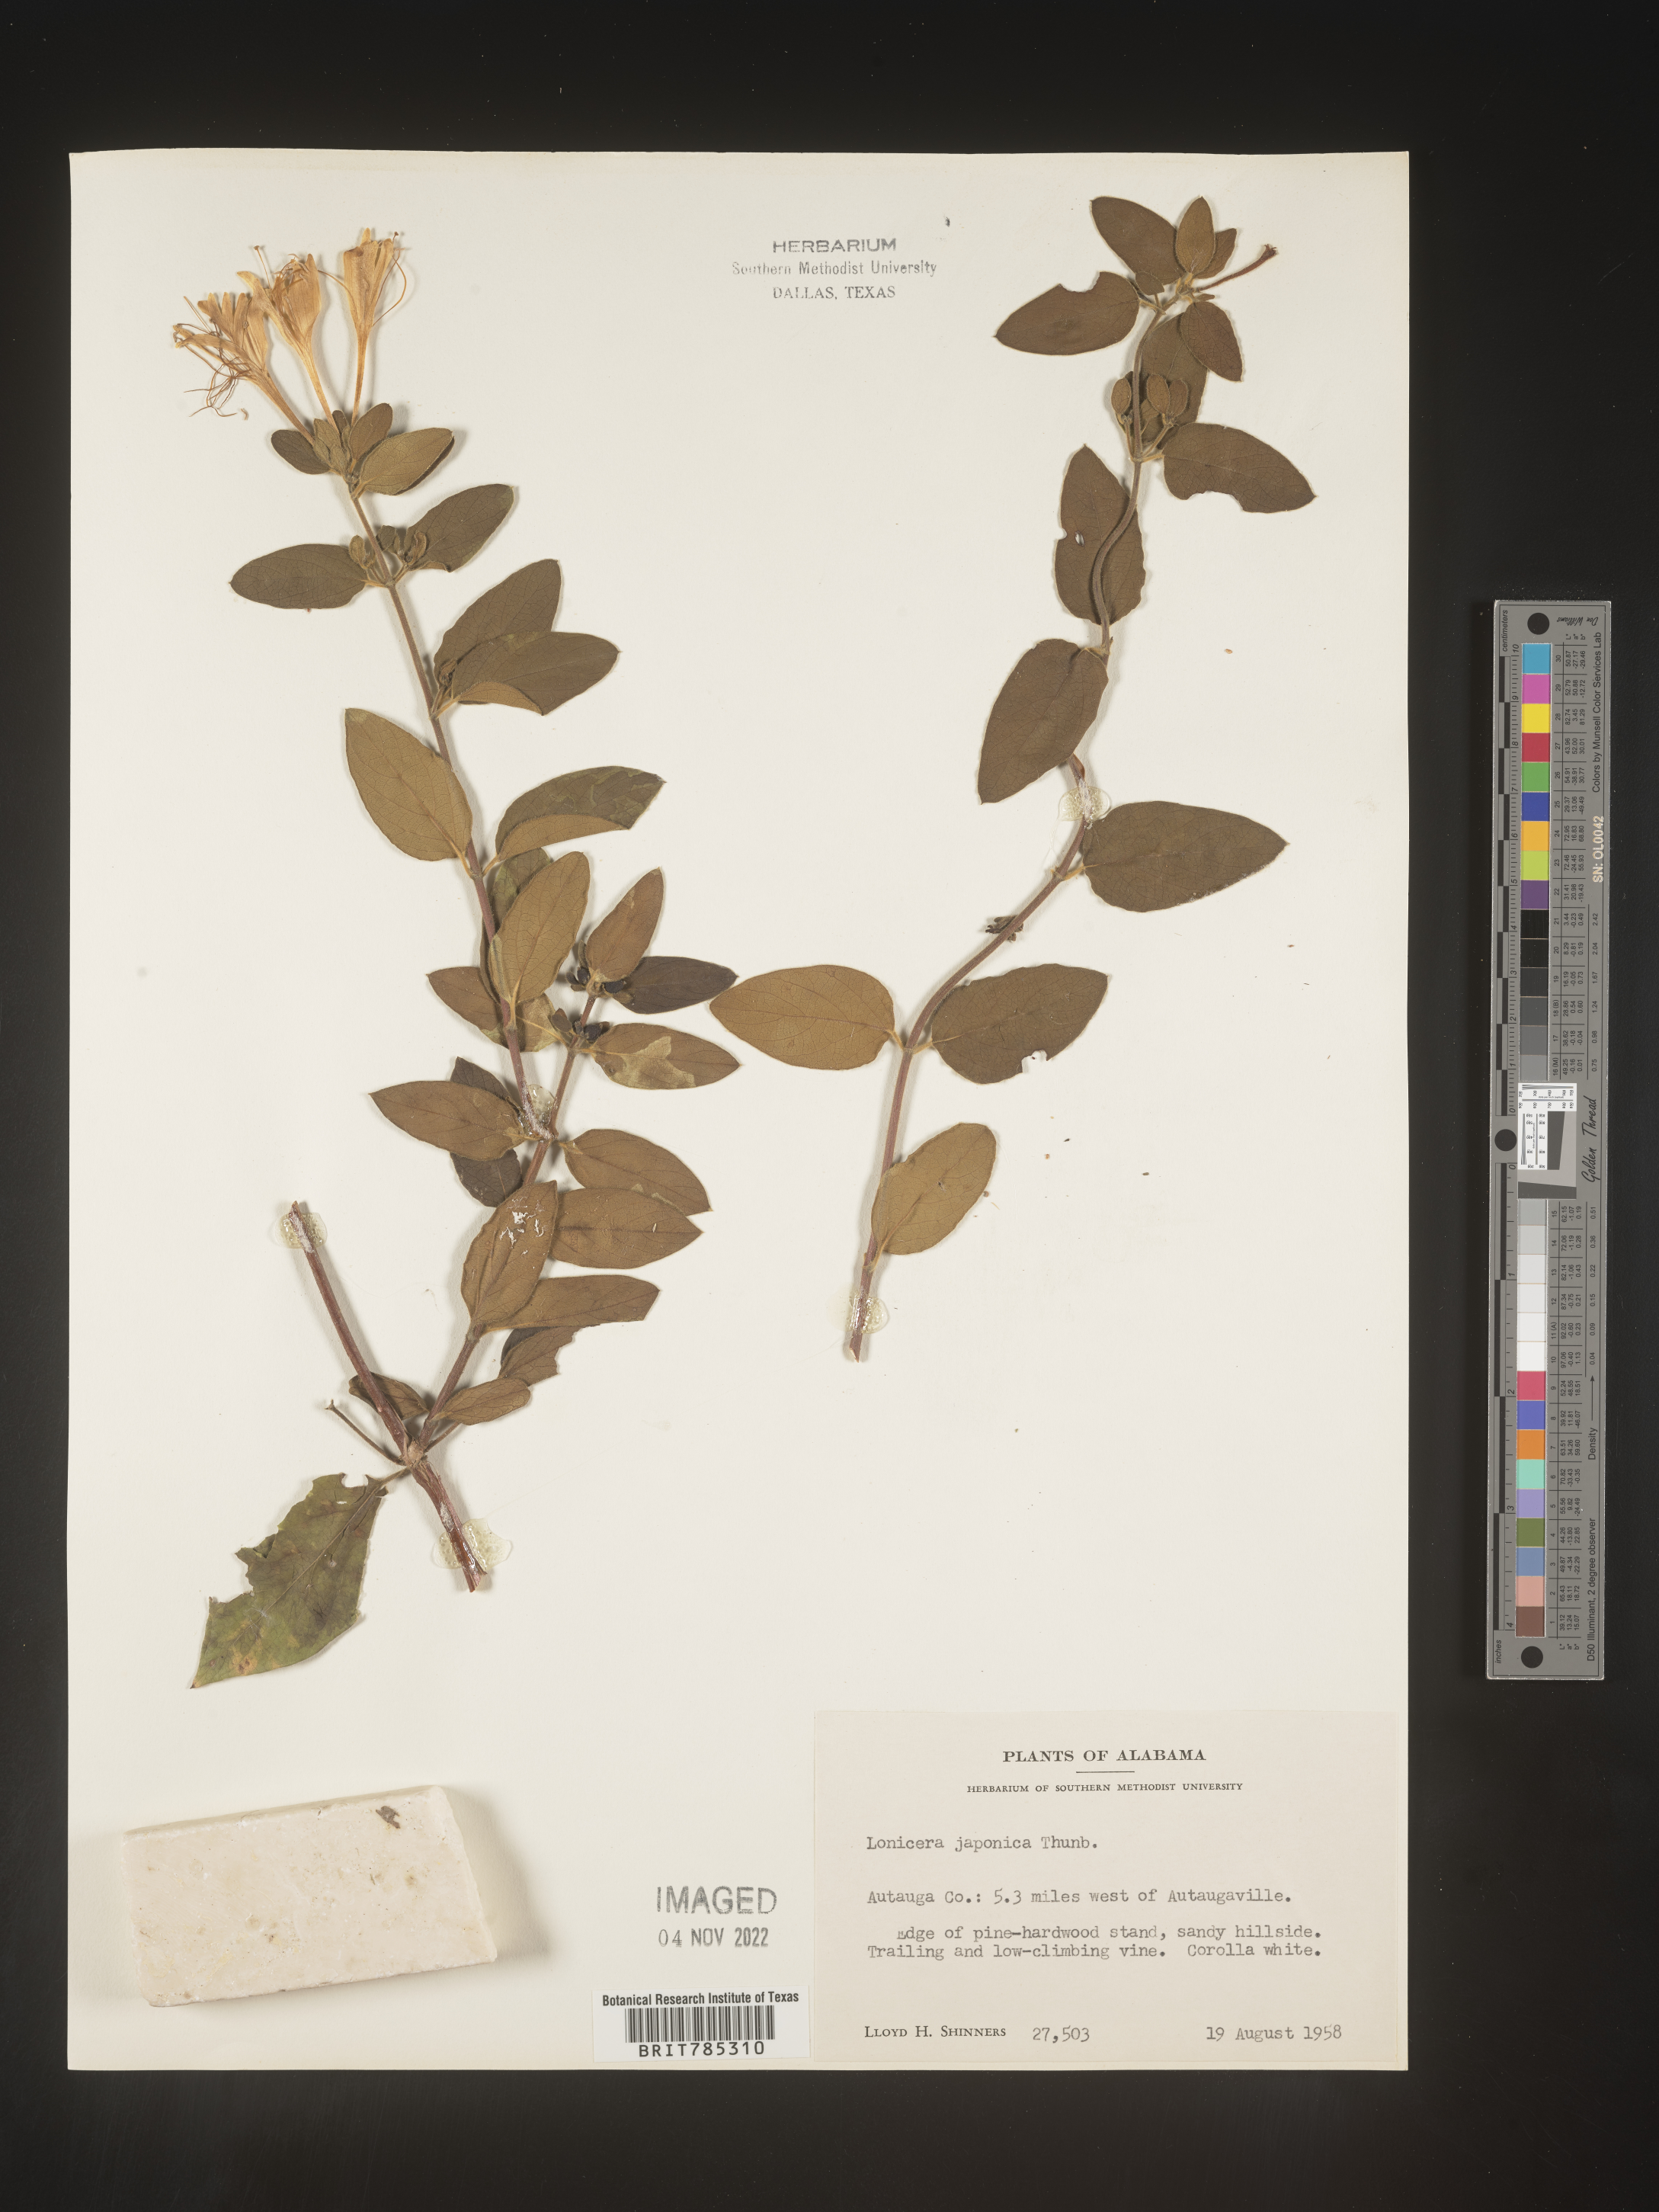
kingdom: Plantae
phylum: Tracheophyta
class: Magnoliopsida
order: Dipsacales
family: Caprifoliaceae
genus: Lonicera
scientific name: Lonicera japonica
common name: Japanese honeysuckle
